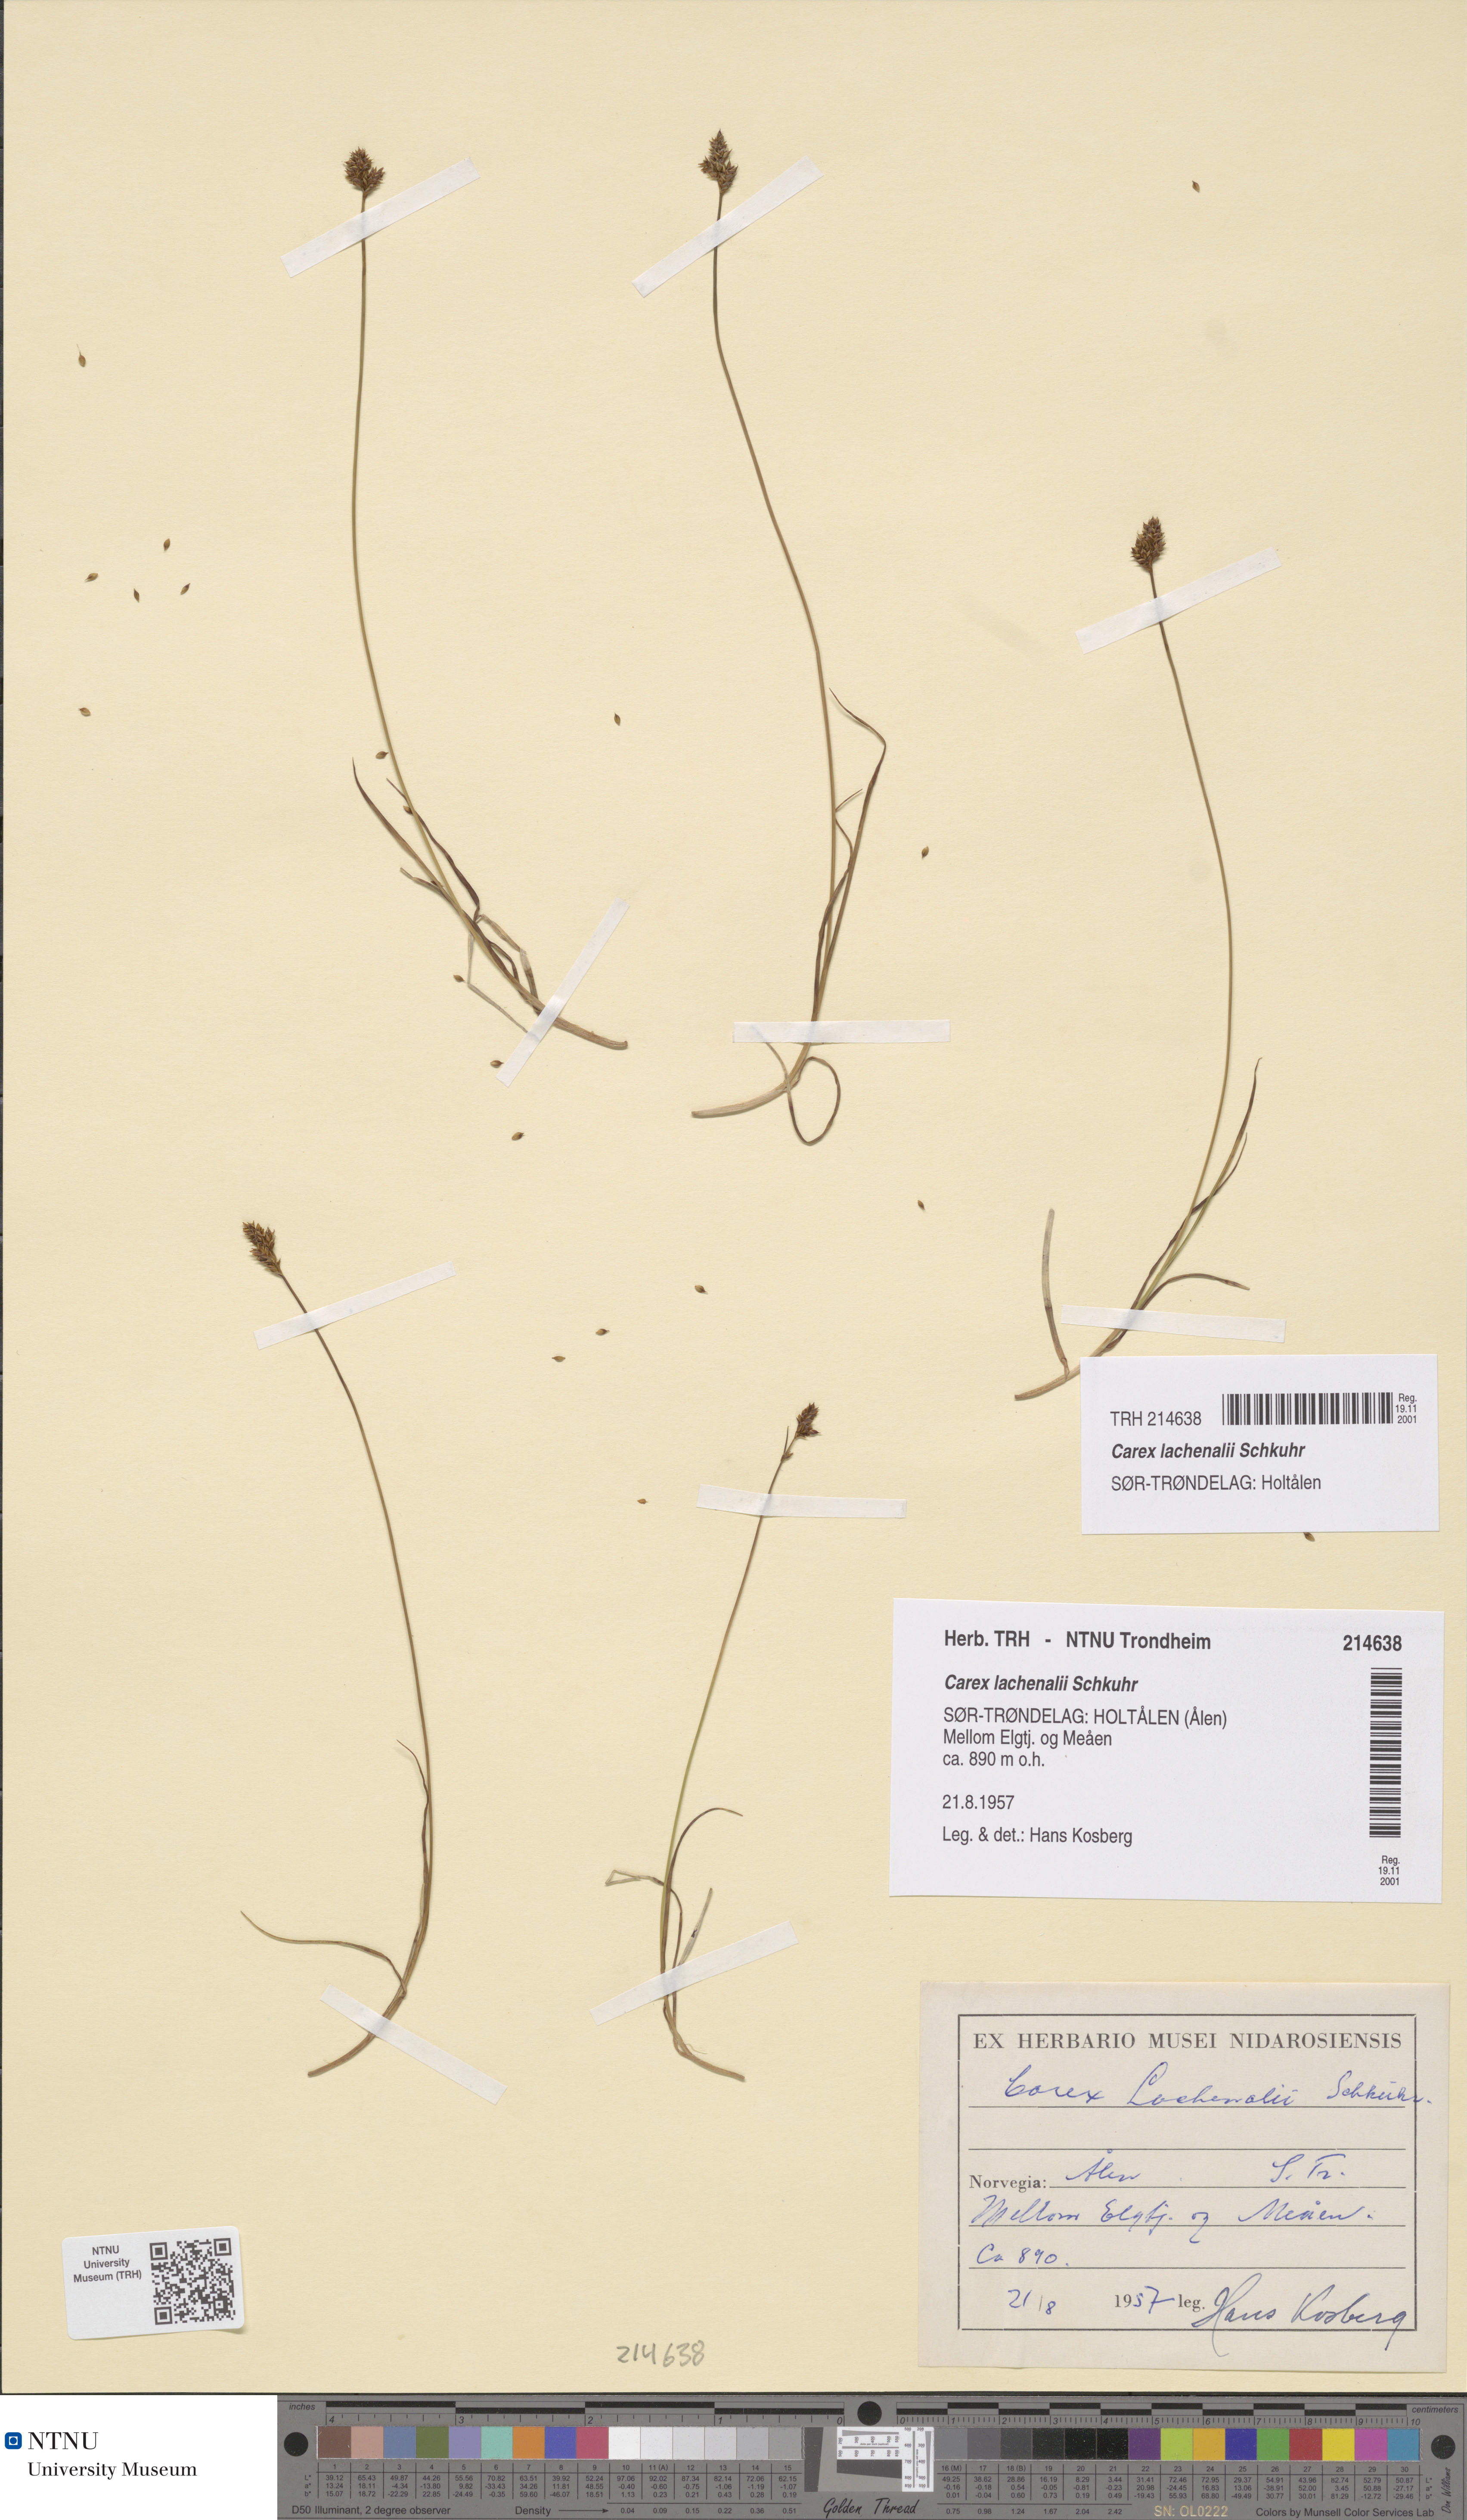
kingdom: Plantae
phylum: Tracheophyta
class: Liliopsida
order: Poales
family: Cyperaceae
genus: Carex
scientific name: Carex lachenalii
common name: Hare's-foot sedge
